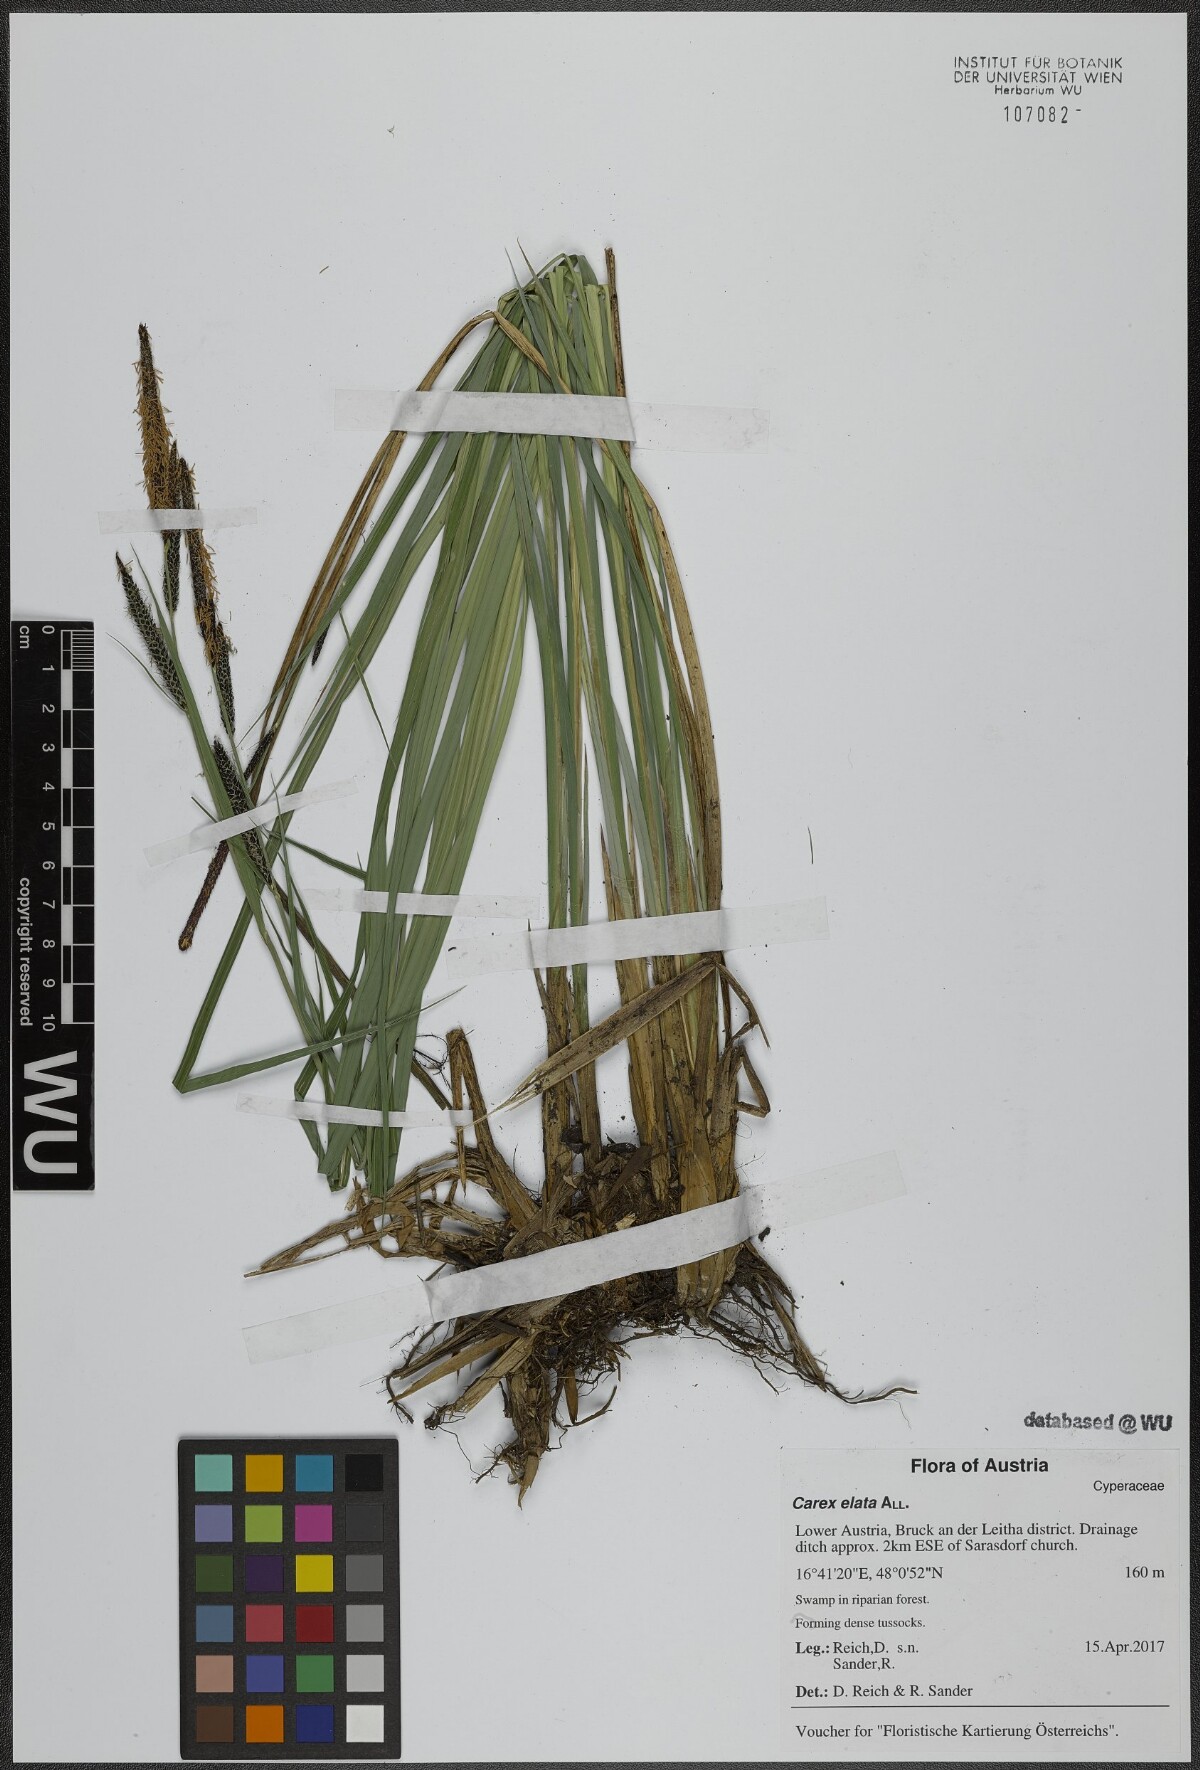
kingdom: Plantae
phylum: Tracheophyta
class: Liliopsida
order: Poales
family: Cyperaceae
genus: Carex
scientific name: Carex elata
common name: Tufted sedge
